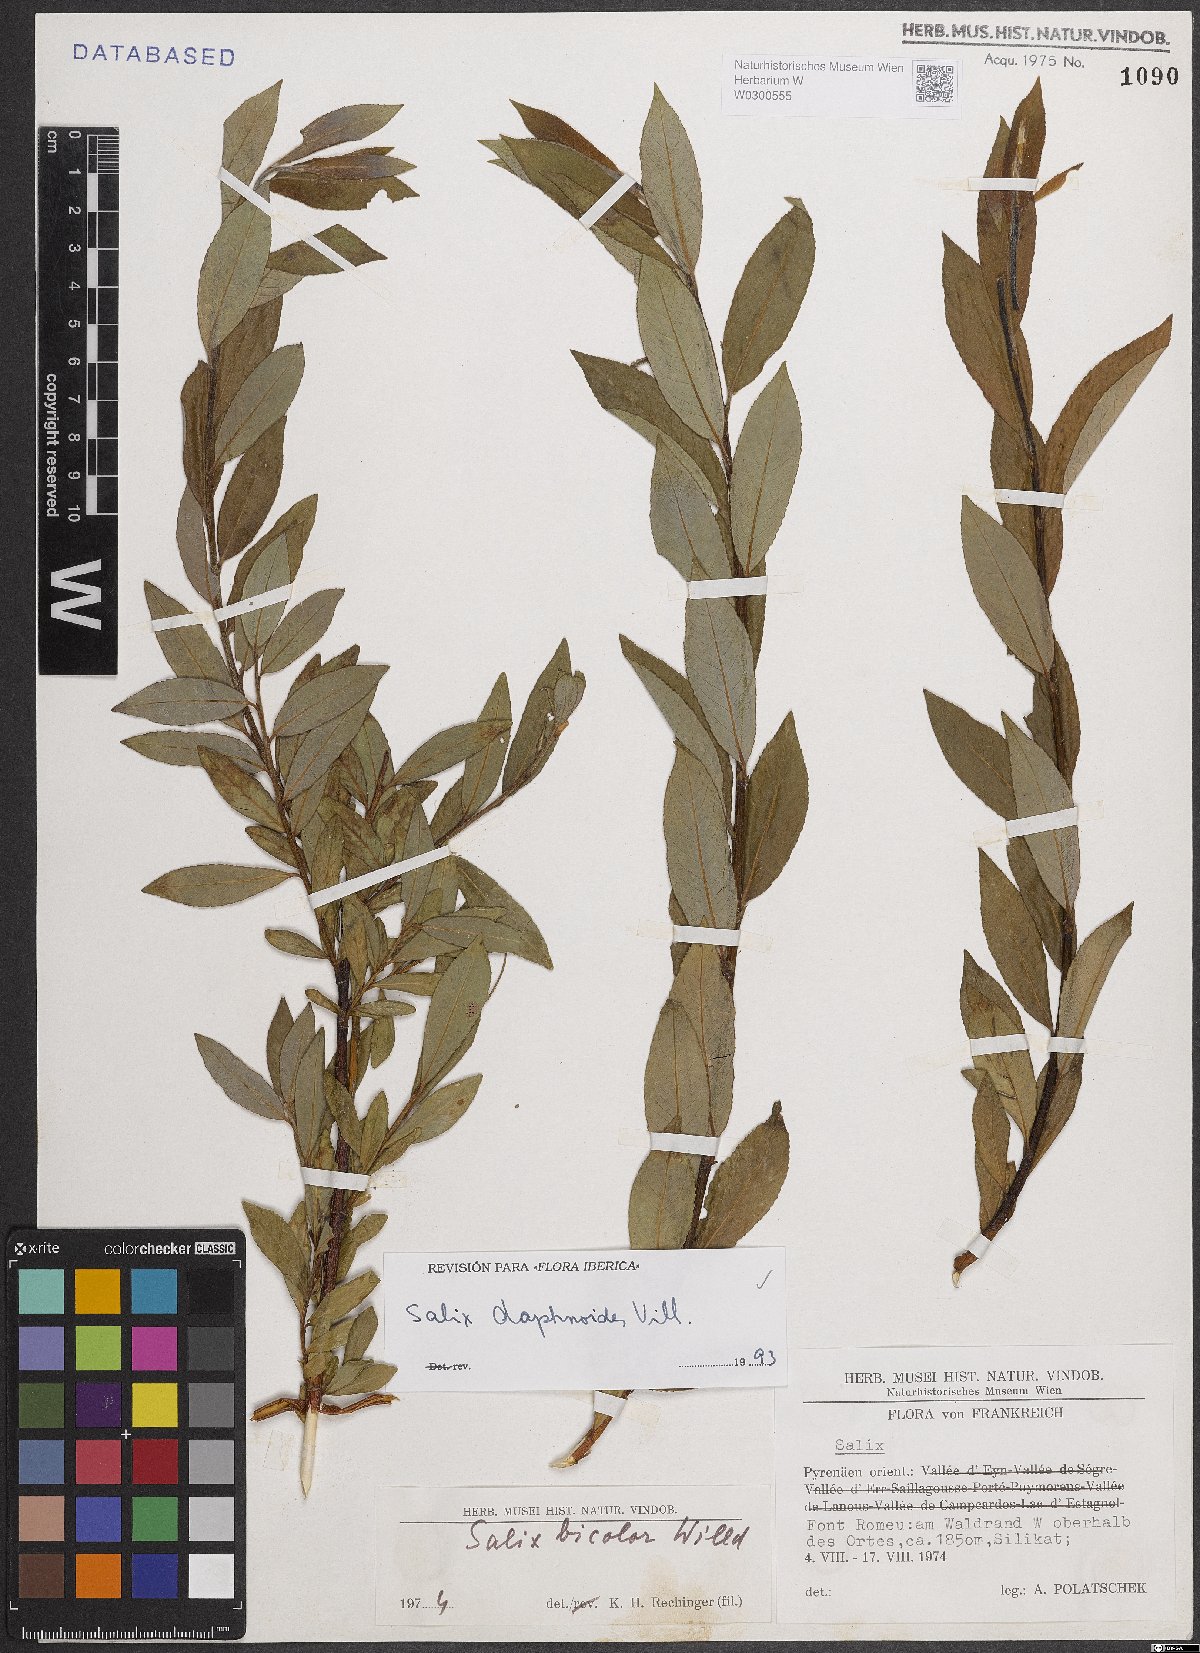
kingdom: Plantae
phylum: Tracheophyta
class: Magnoliopsida
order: Malpighiales
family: Salicaceae
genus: Salix
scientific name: Salix daphnoides
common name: European violet-willow
